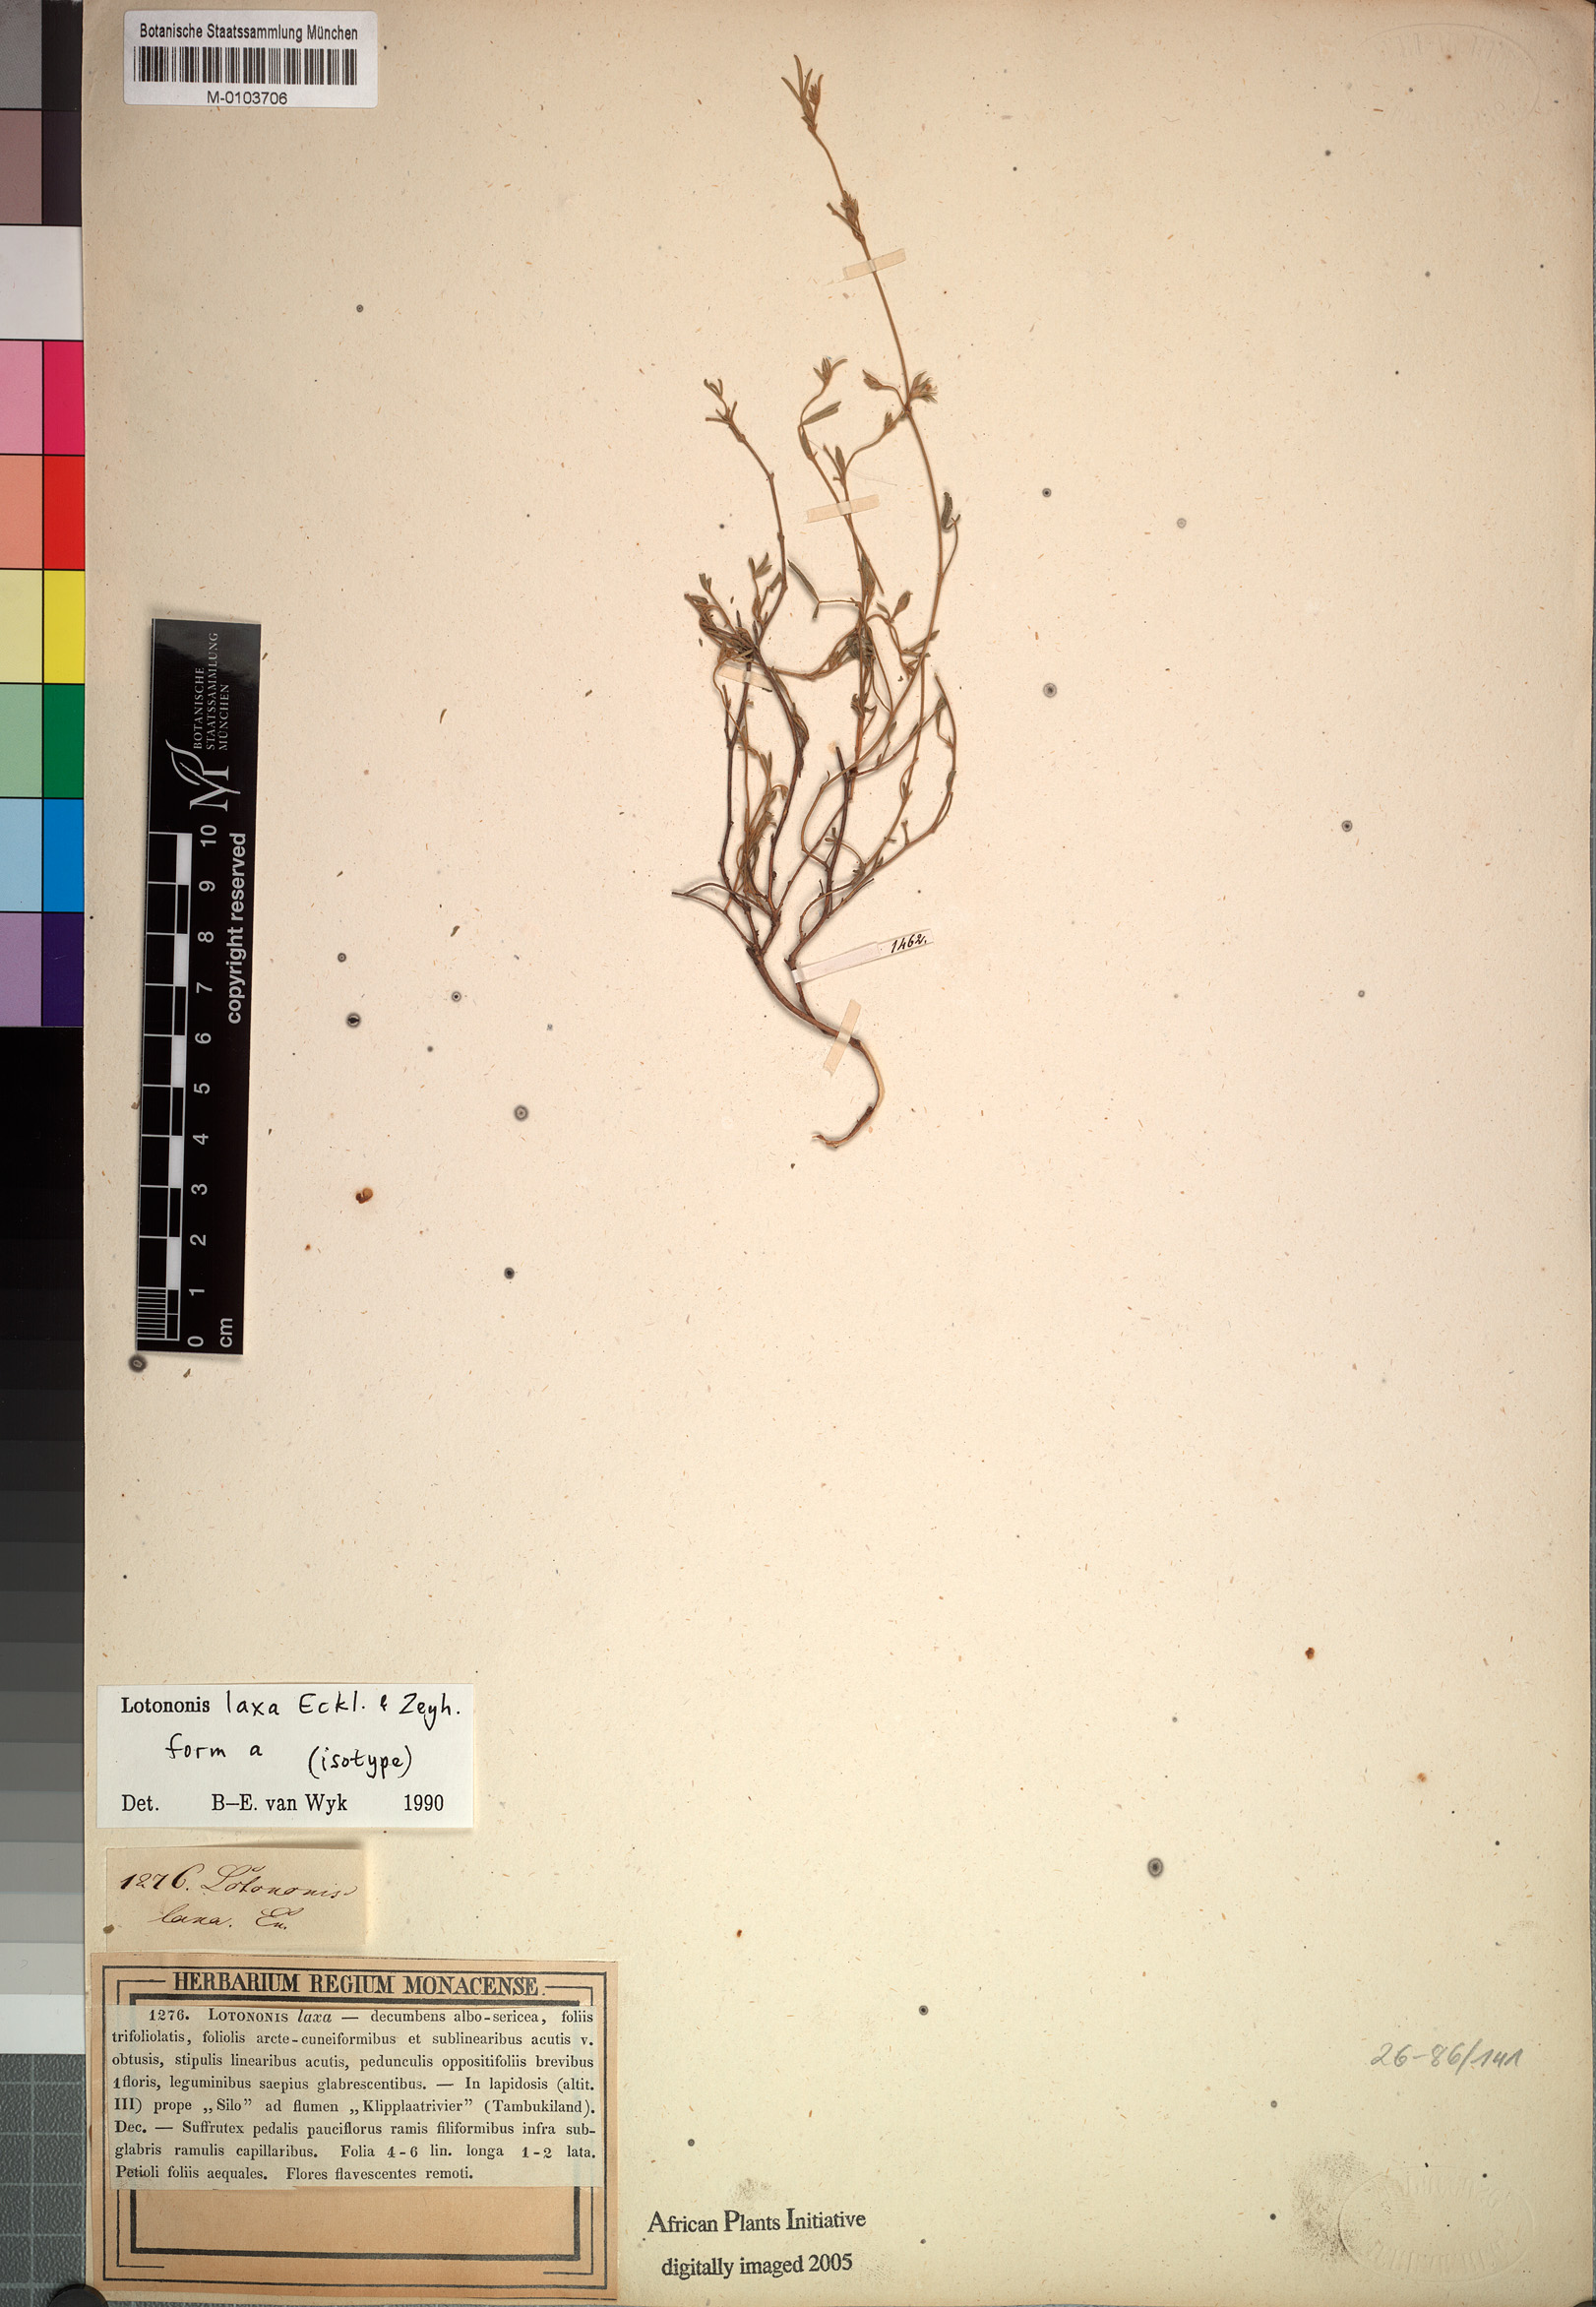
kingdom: Plantae
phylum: Tracheophyta
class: Magnoliopsida
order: Fabales
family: Fabaceae
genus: Lotononis
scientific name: Lotononis laxa
